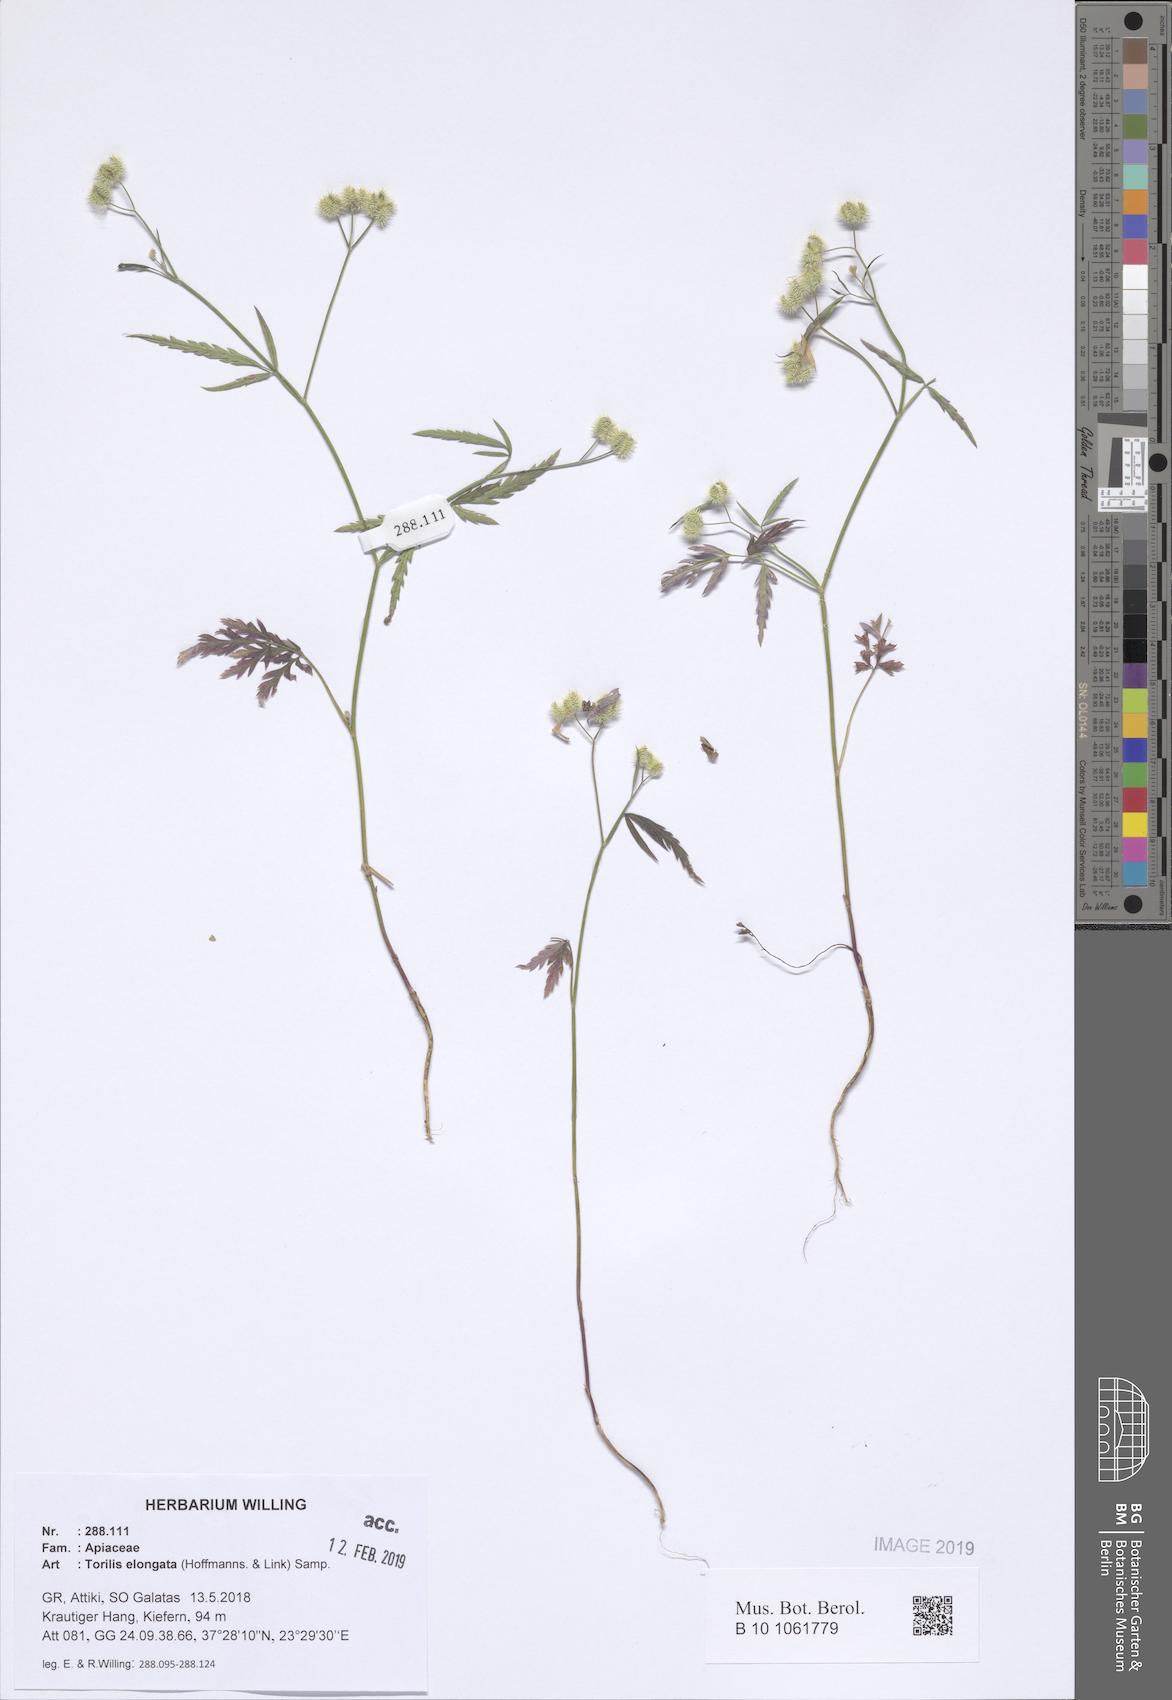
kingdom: Plantae
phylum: Tracheophyta
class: Magnoliopsida
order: Apiales
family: Apiaceae
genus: Torilis
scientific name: Torilis elongata
